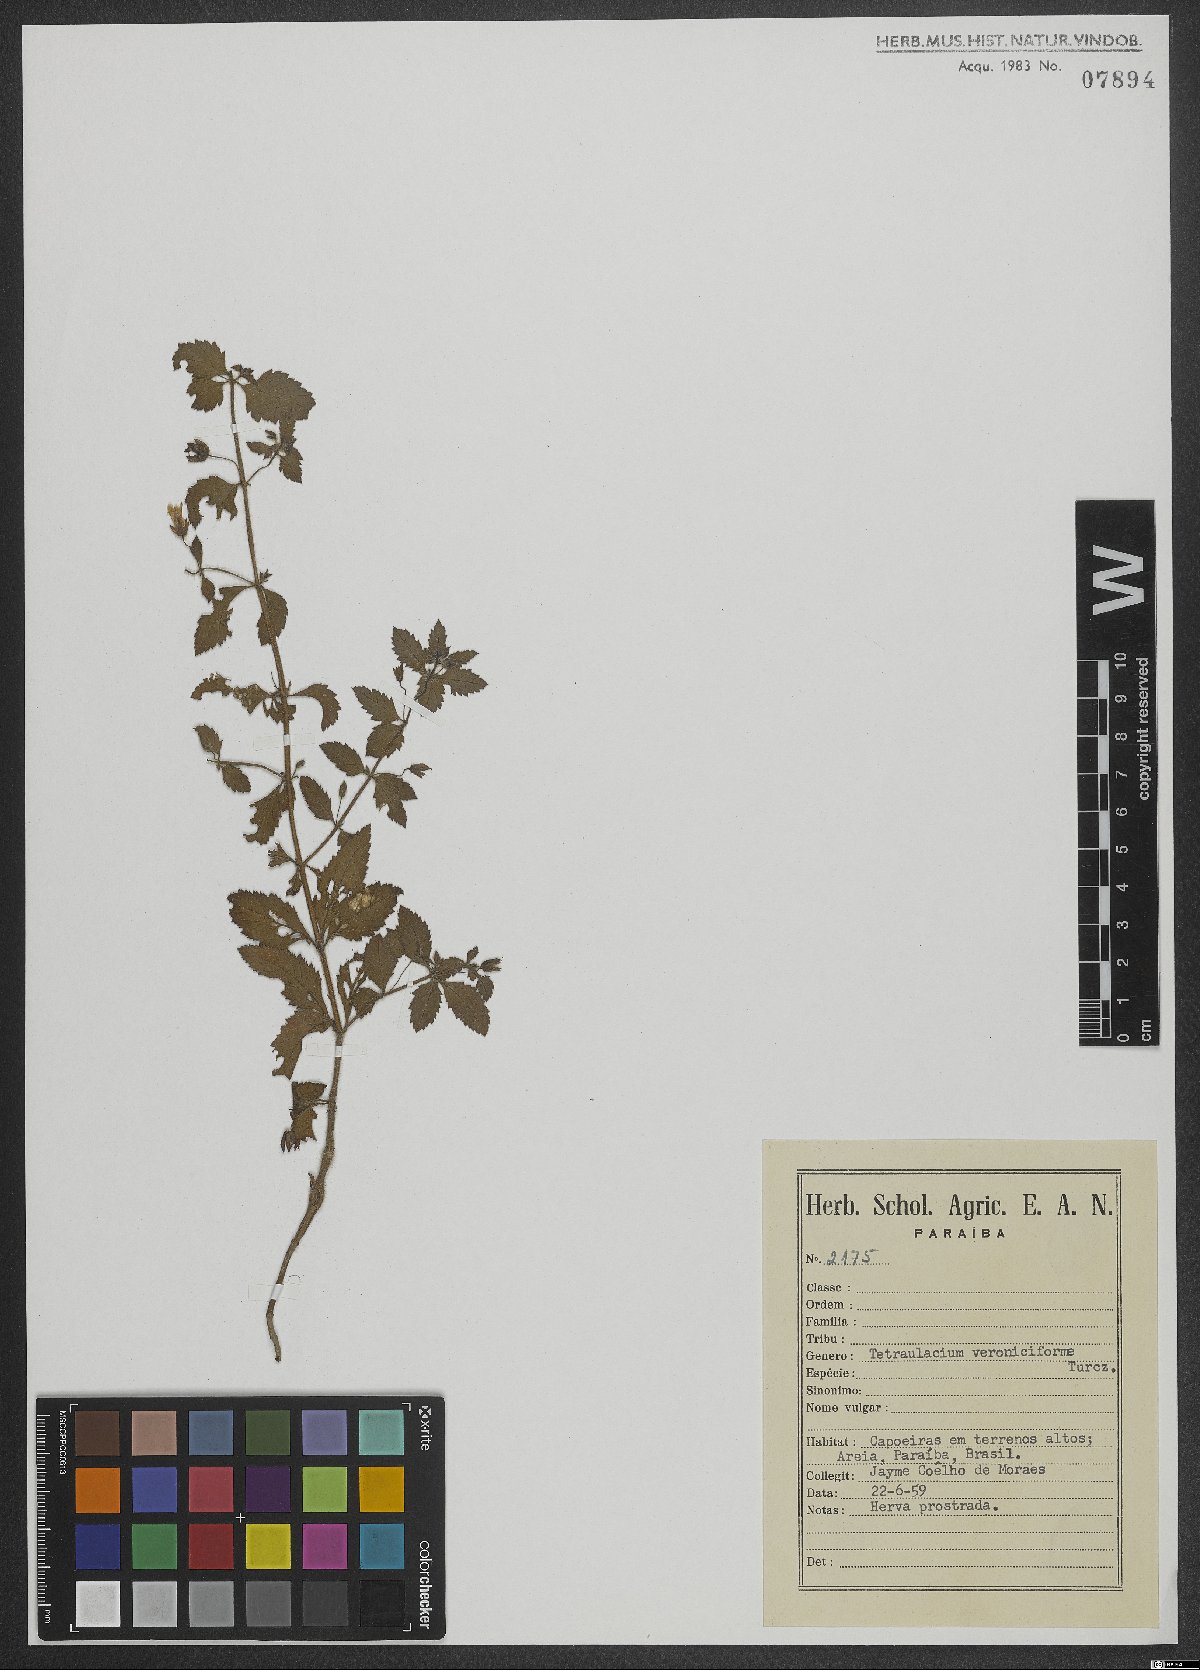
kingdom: Plantae
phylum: Tracheophyta
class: Magnoliopsida
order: Lamiales
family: Plantaginaceae
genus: Tetraulacium
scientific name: Tetraulacium veroniciforme
